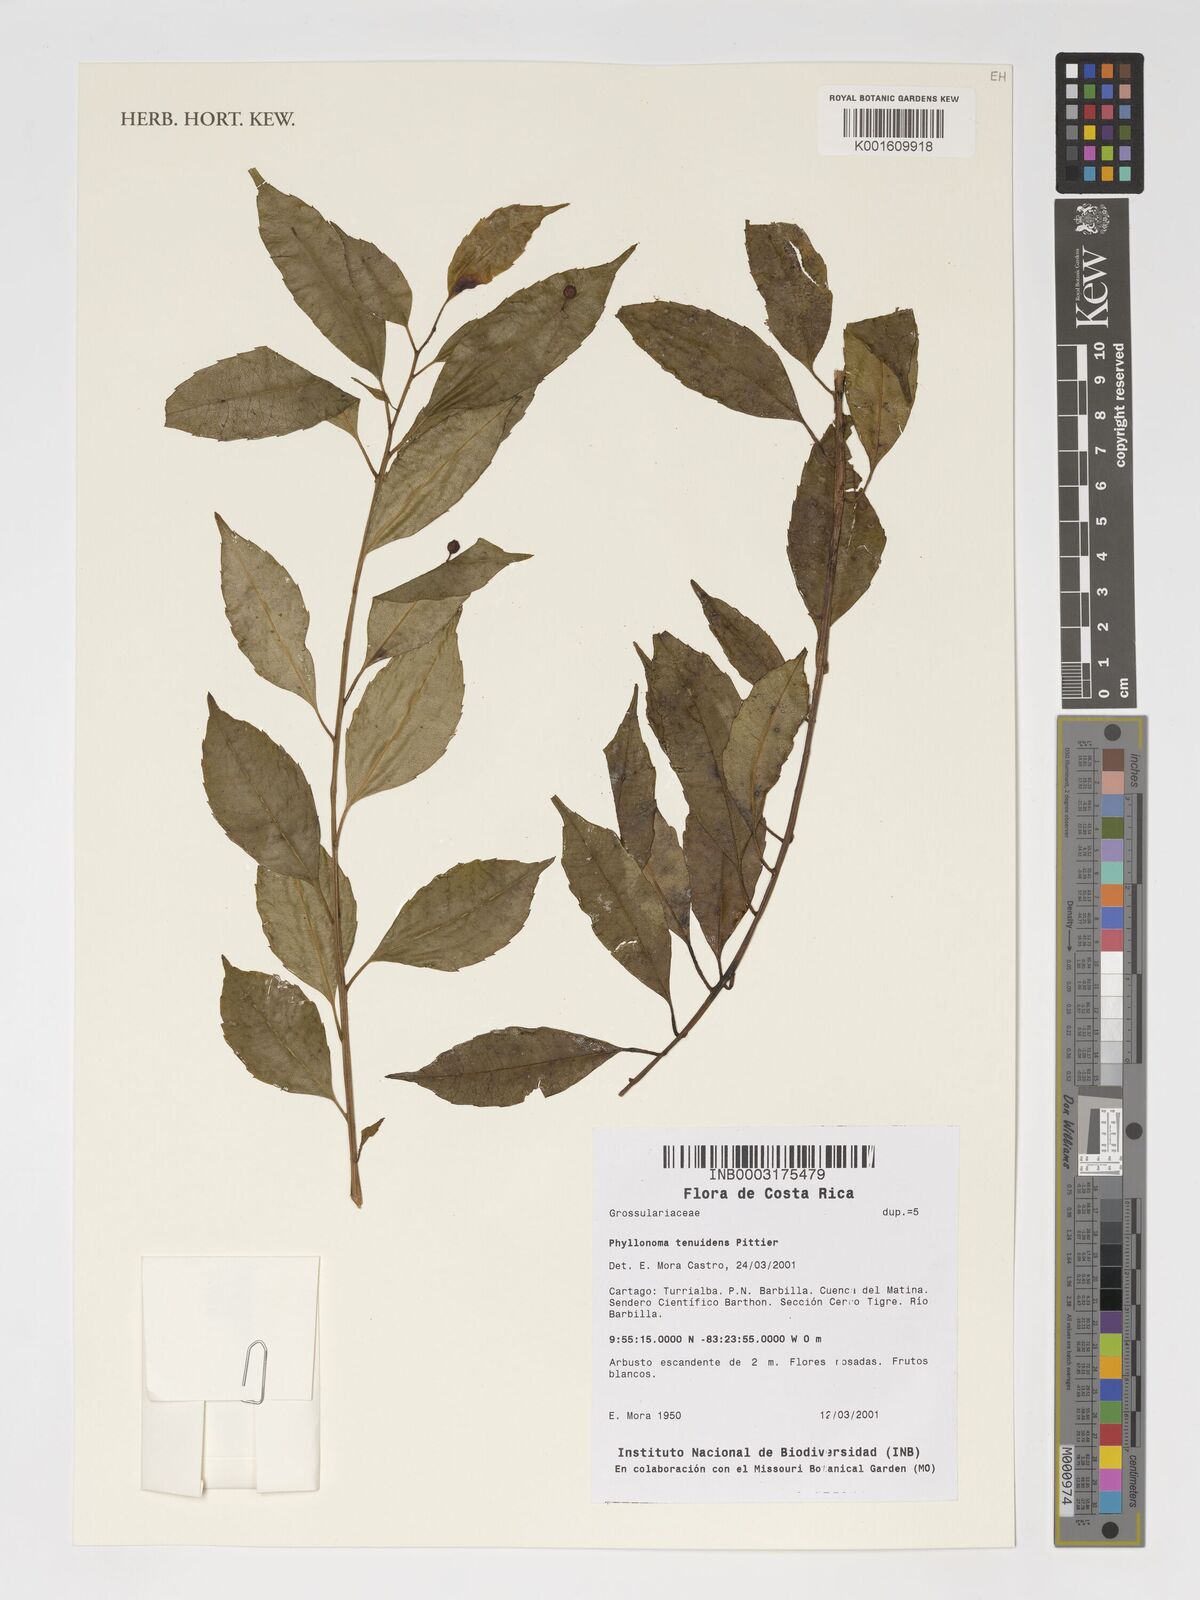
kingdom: Plantae
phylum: Tracheophyta
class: Magnoliopsida
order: Aquifoliales
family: Phyllonomaceae
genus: Phyllonoma
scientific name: Phyllonoma tenuidens
